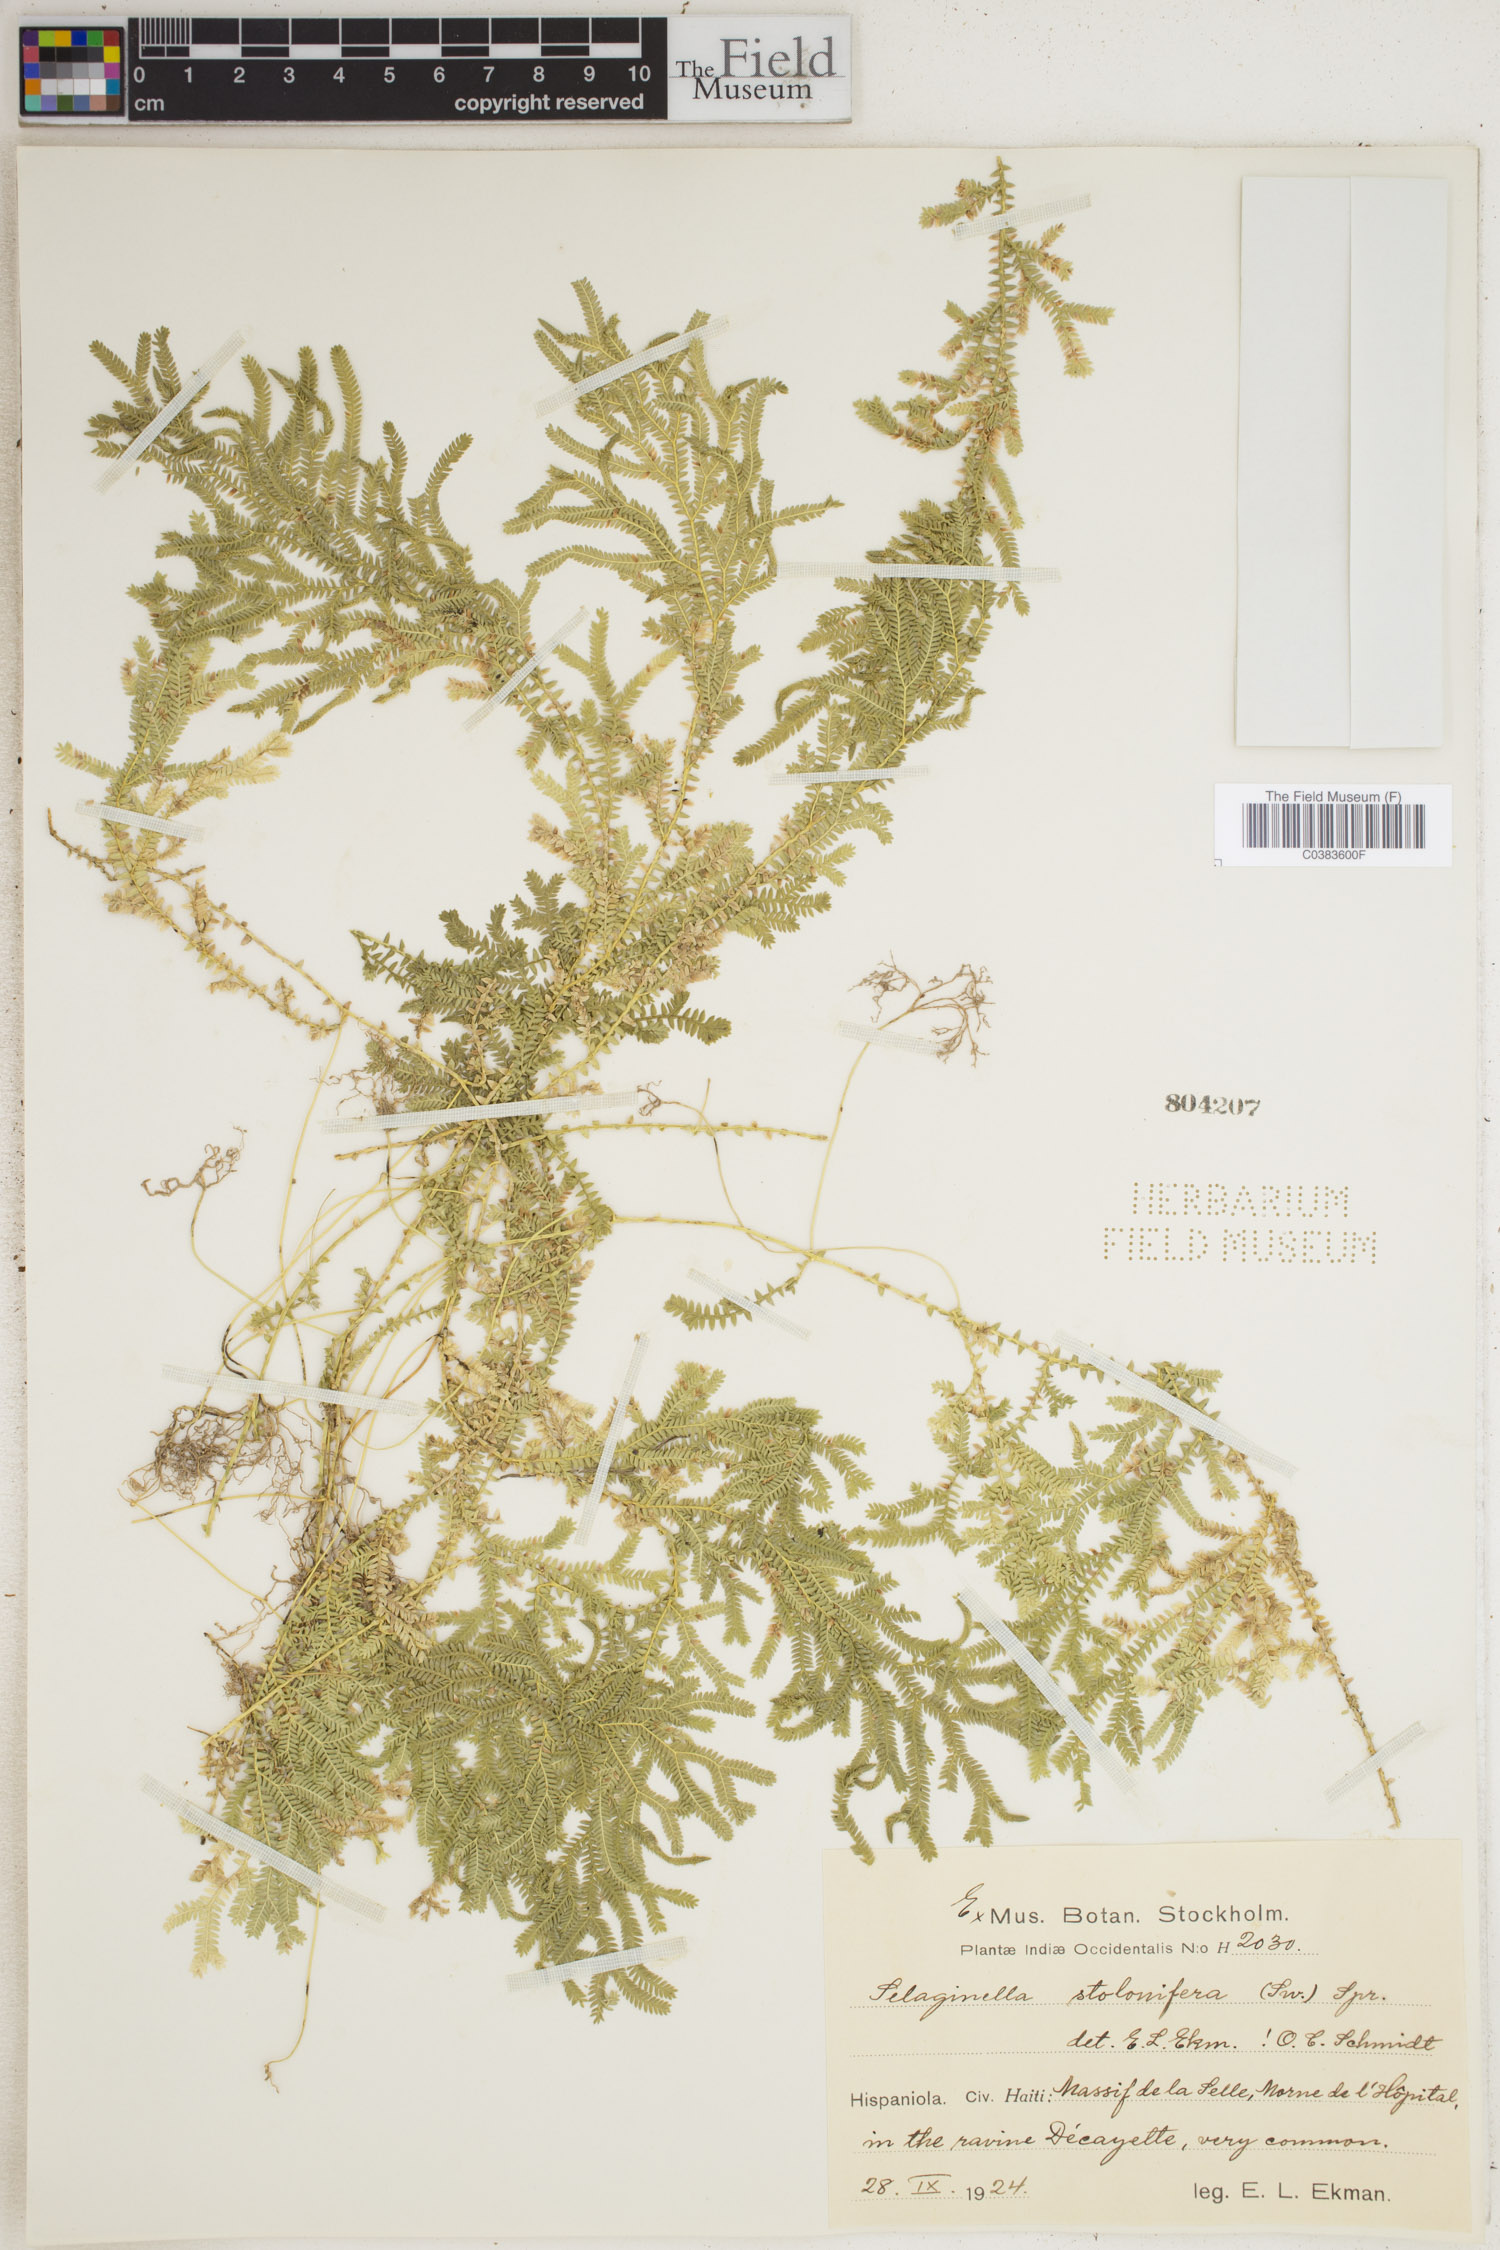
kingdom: Plantae
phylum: Tracheophyta
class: Lycopodiopsida
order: Selaginellales
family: Selaginellaceae
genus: Selaginella
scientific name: Selaginella plumosa
